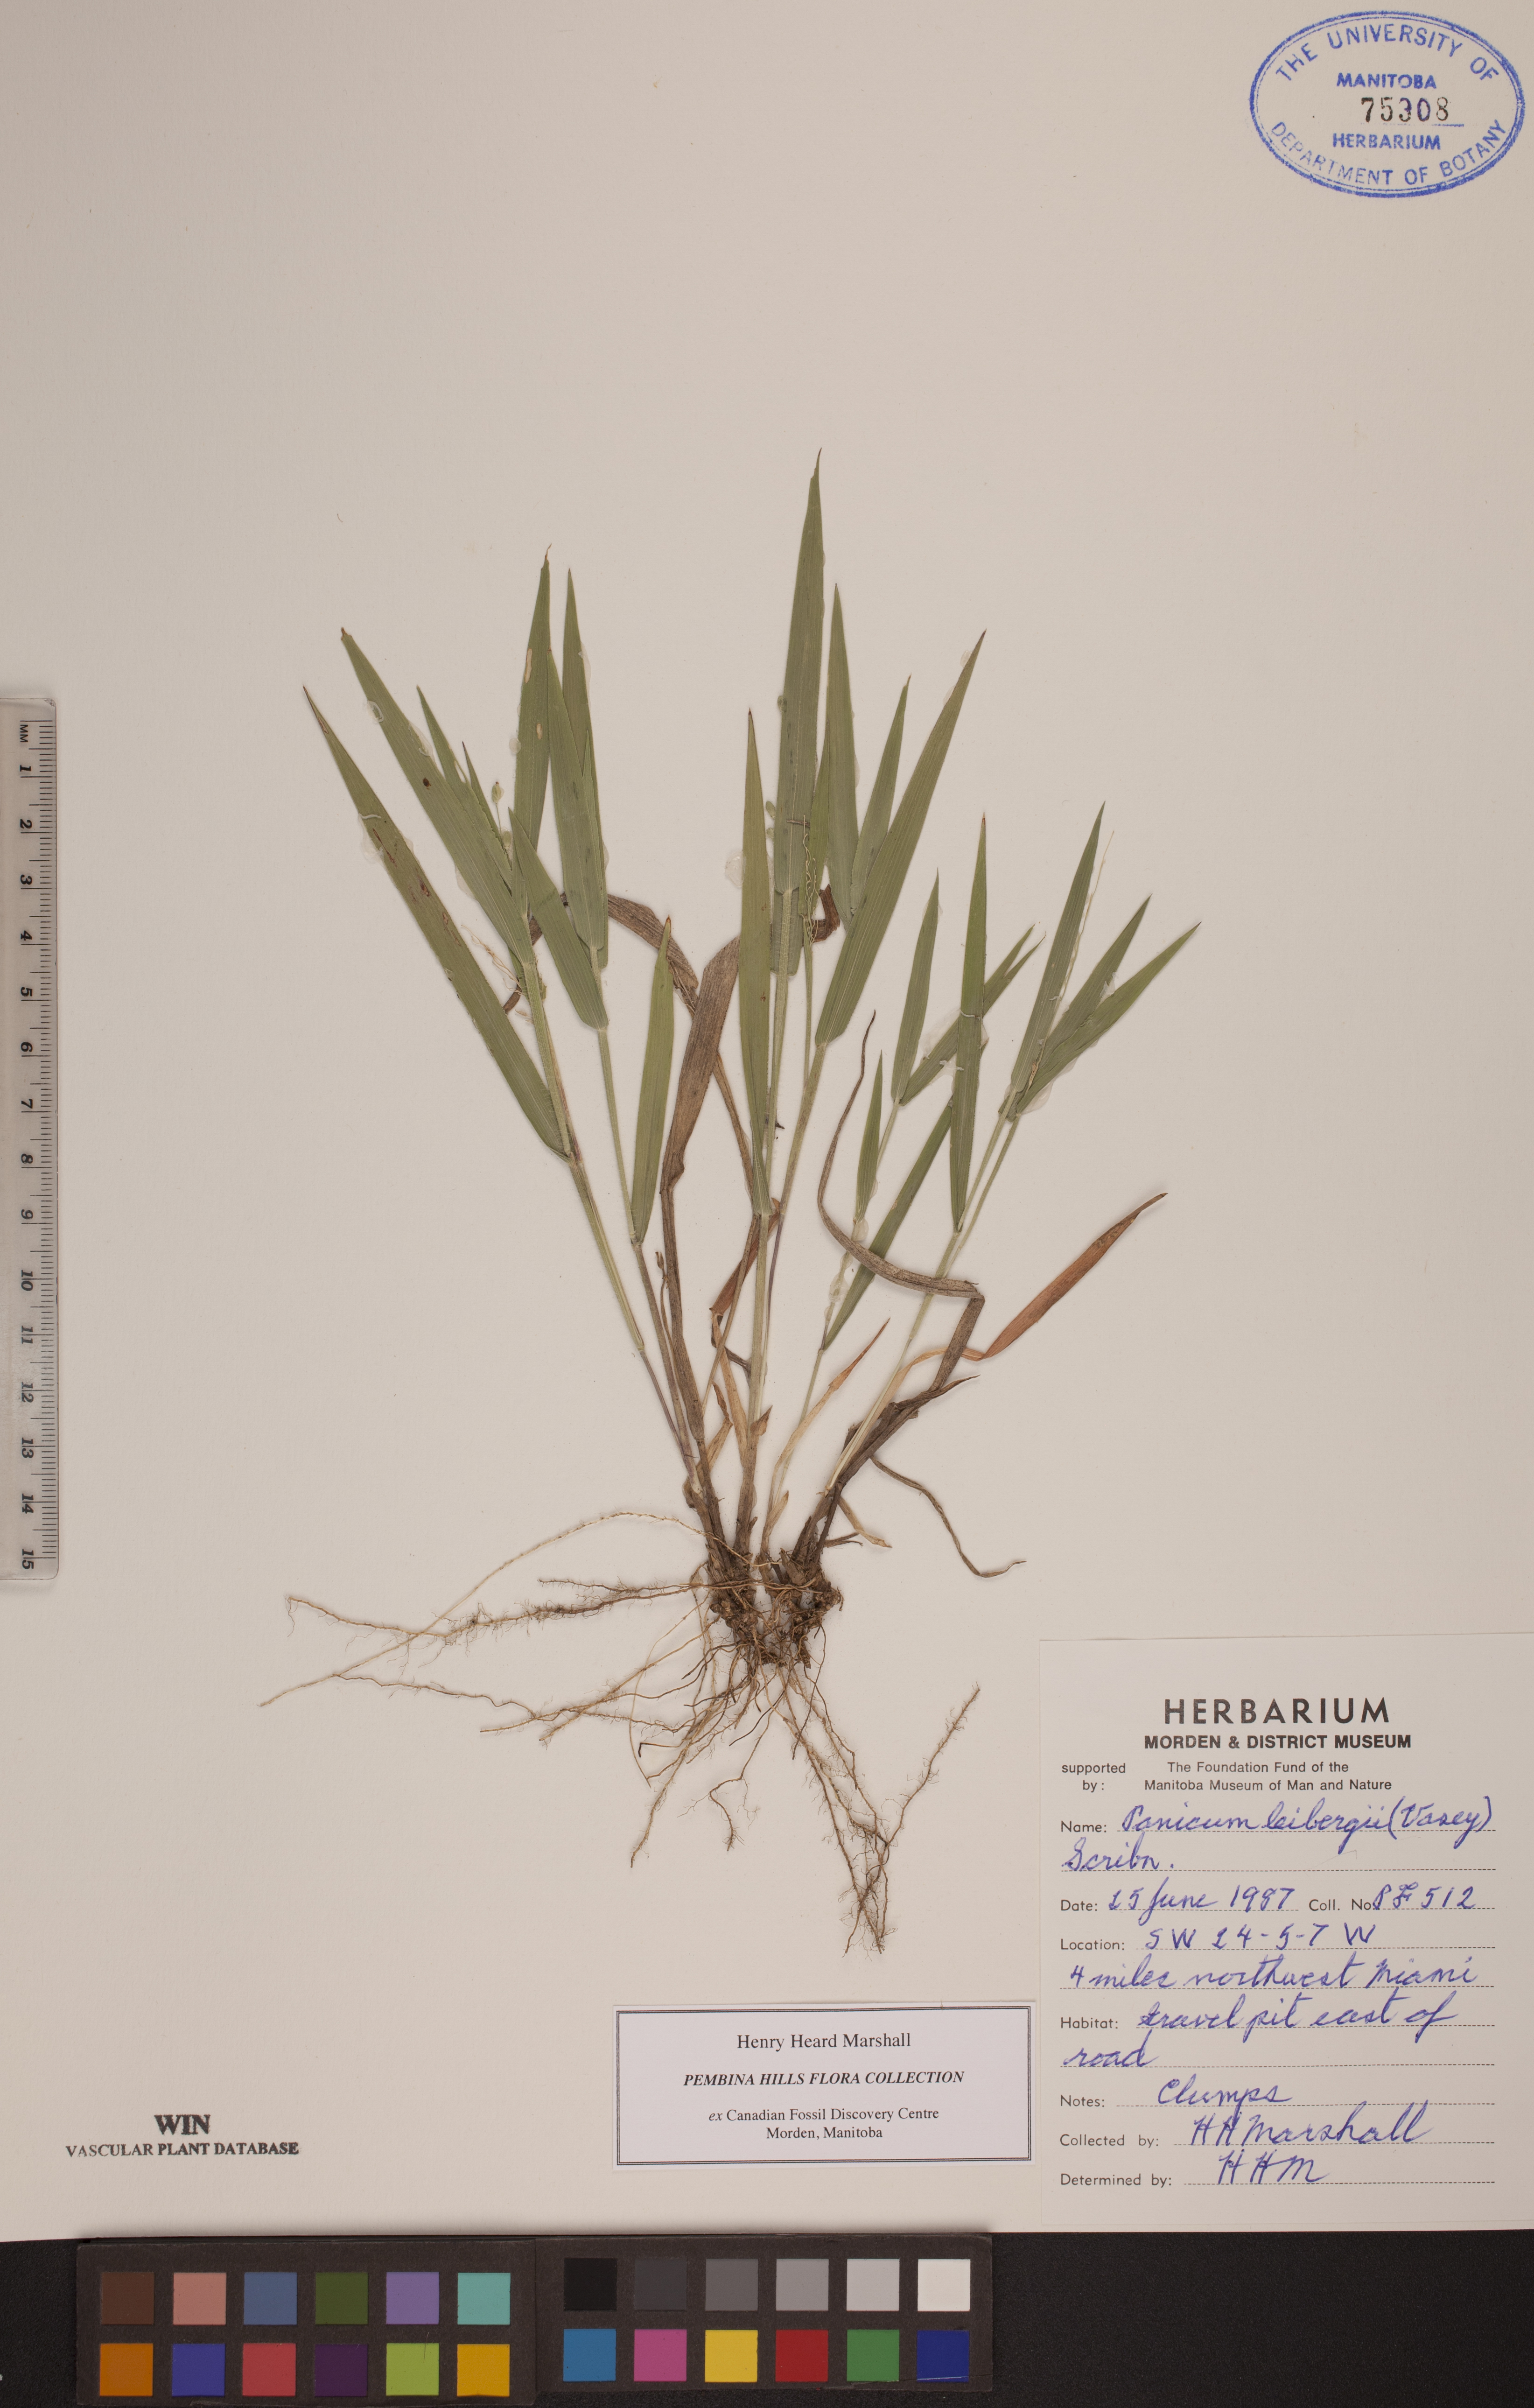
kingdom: Plantae
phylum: Tracheophyta
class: Liliopsida
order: Poales
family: Poaceae
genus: Dichanthelium
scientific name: Dichanthelium leibergii
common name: Leiberg's panic grass
